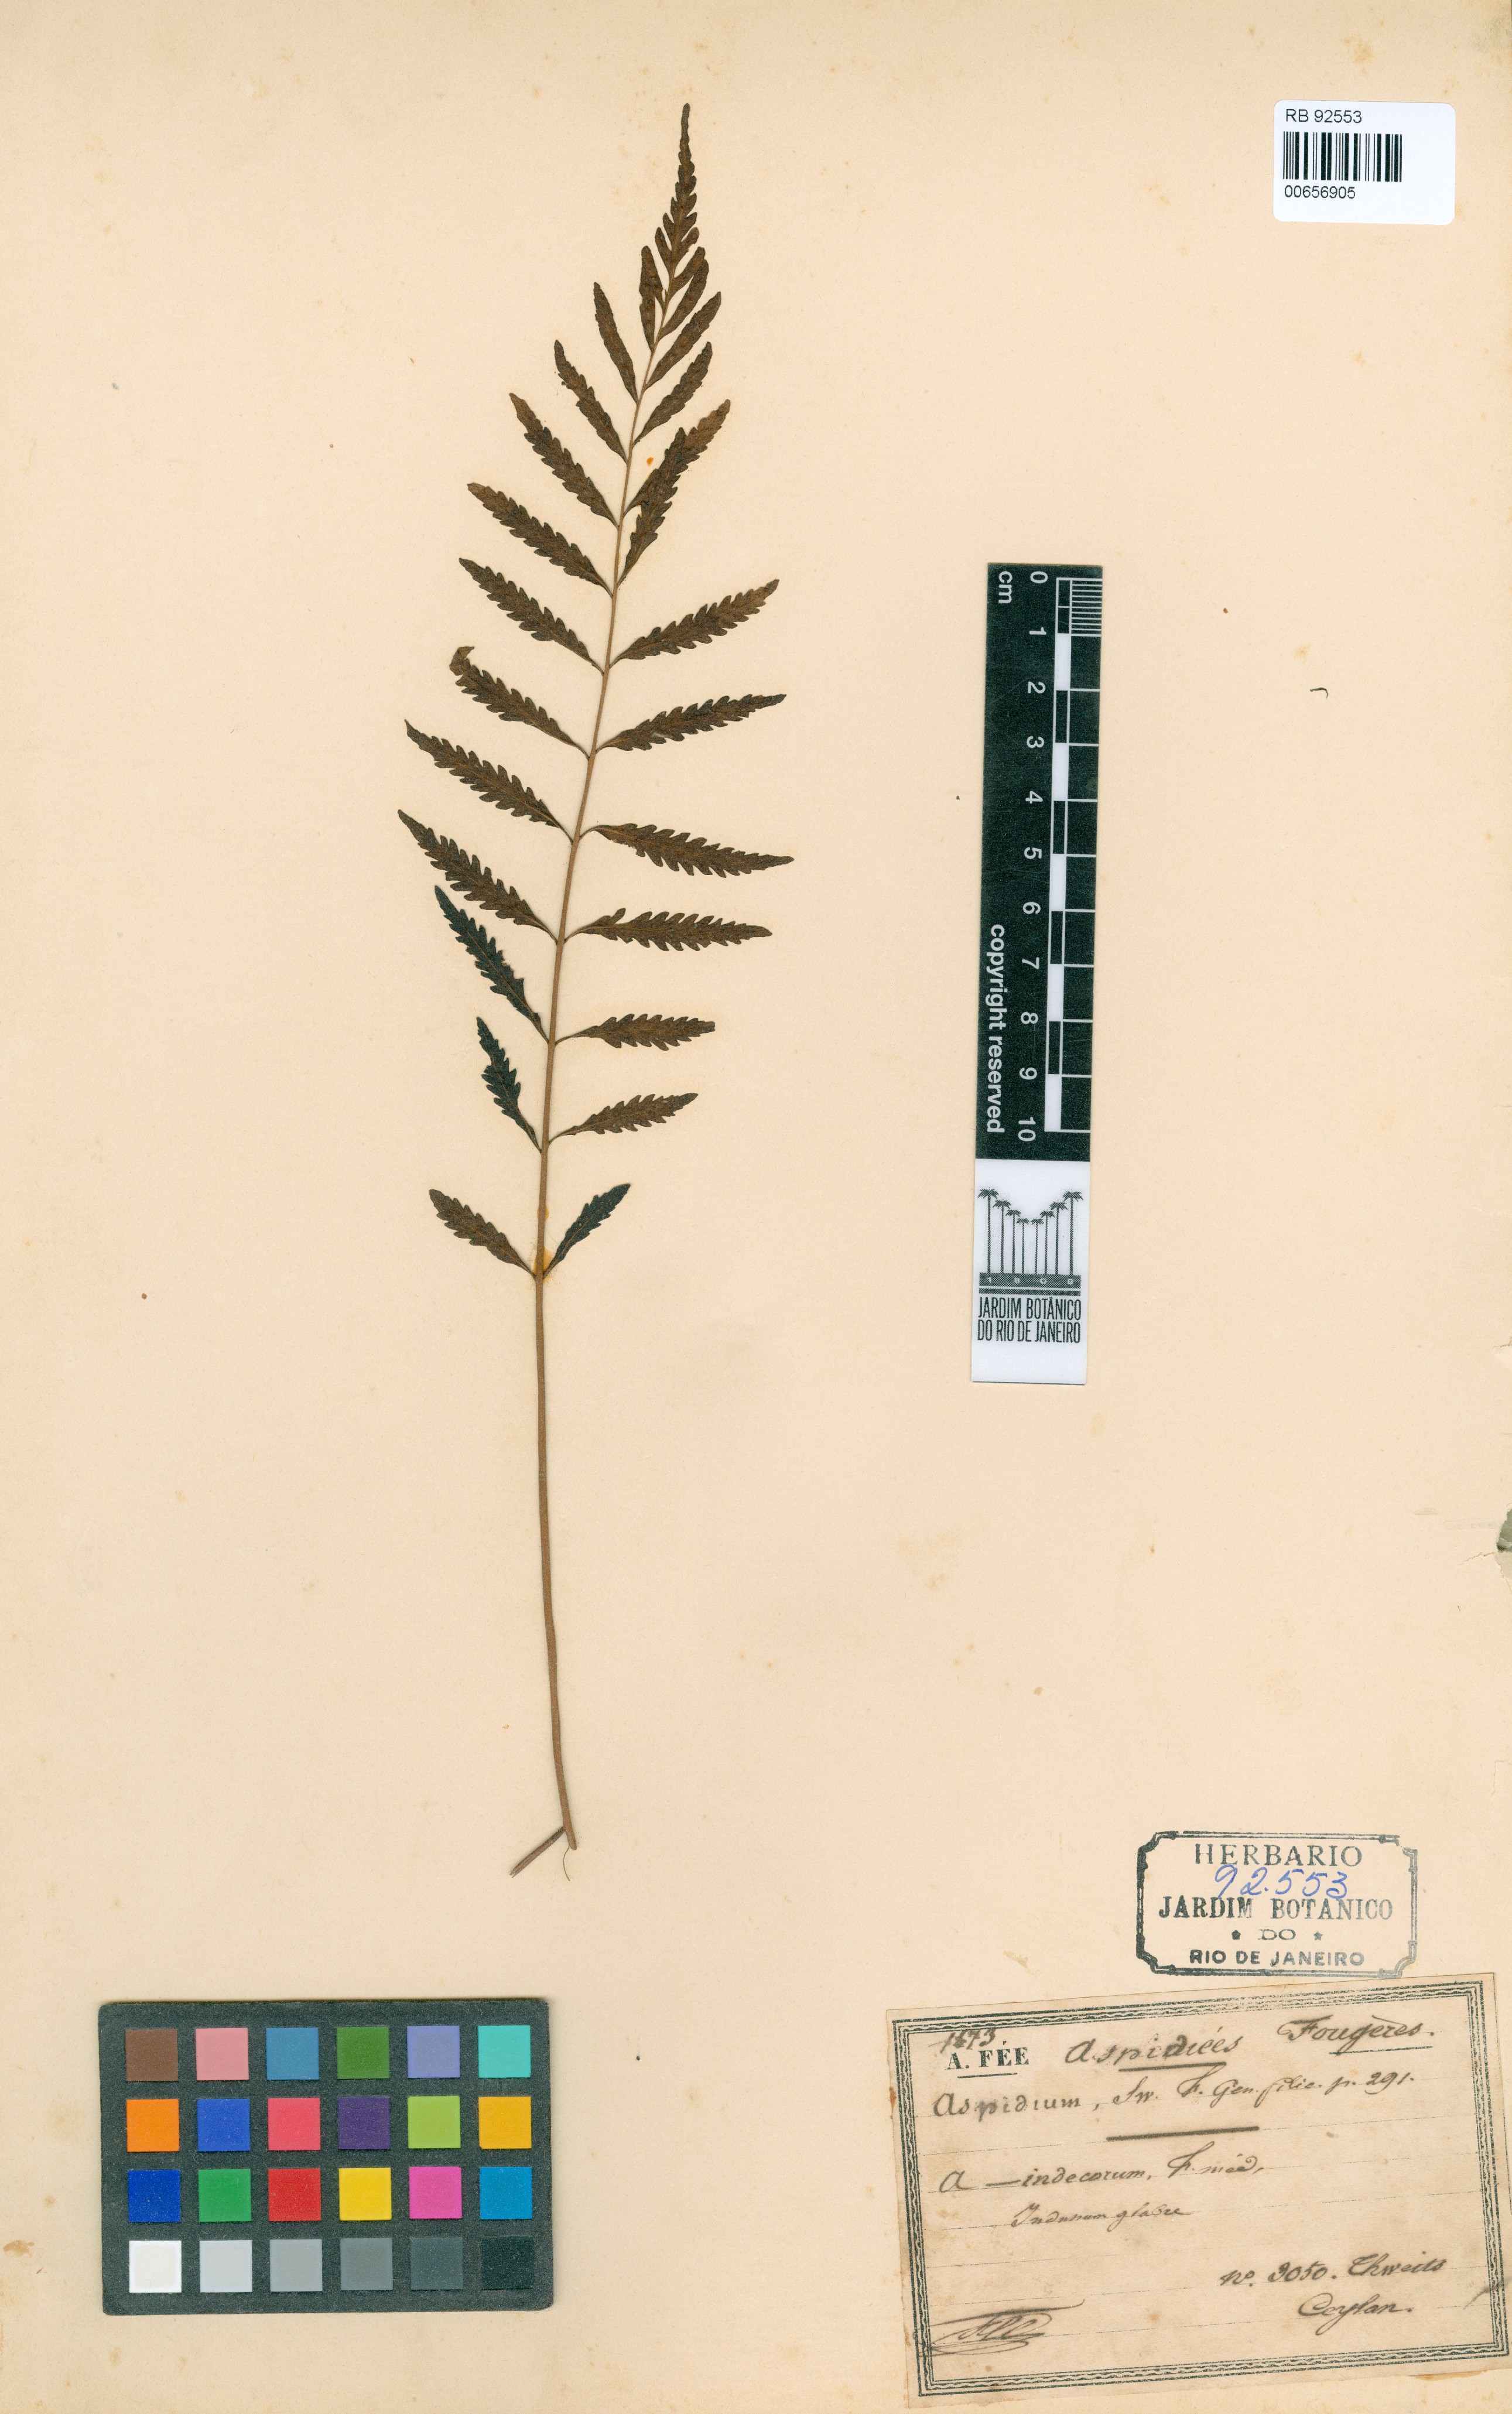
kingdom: Plantae
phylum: Tracheophyta
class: Polypodiopsida
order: Polypodiales
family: Dryopteridaceae
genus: Dryopteris
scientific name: Dryopteris cinnamomea
